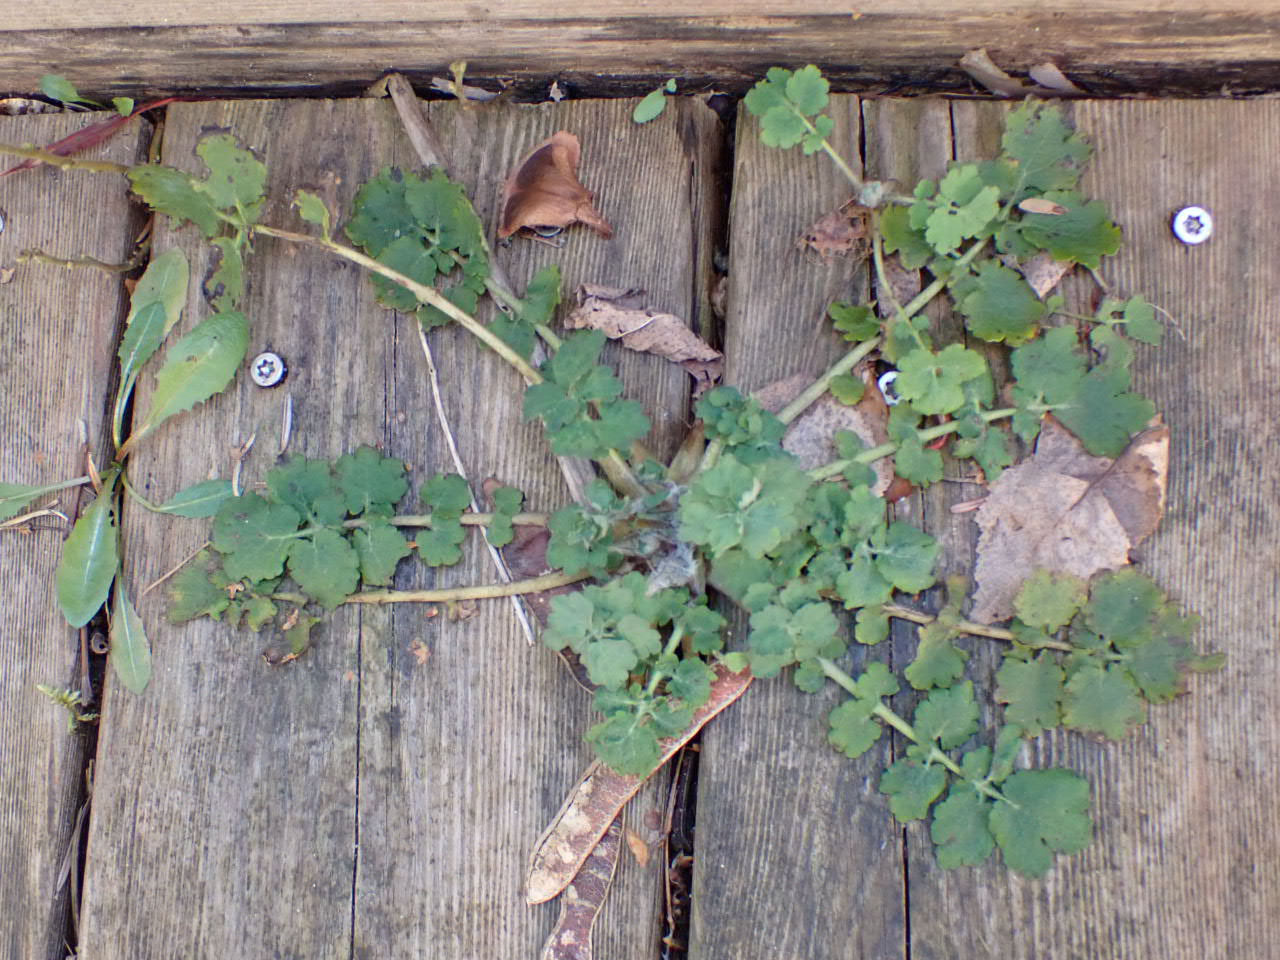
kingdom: Plantae
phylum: Tracheophyta
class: Magnoliopsida
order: Ranunculales
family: Papaveraceae
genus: Chelidonium
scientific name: Chelidonium majus
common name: Svaleurt
